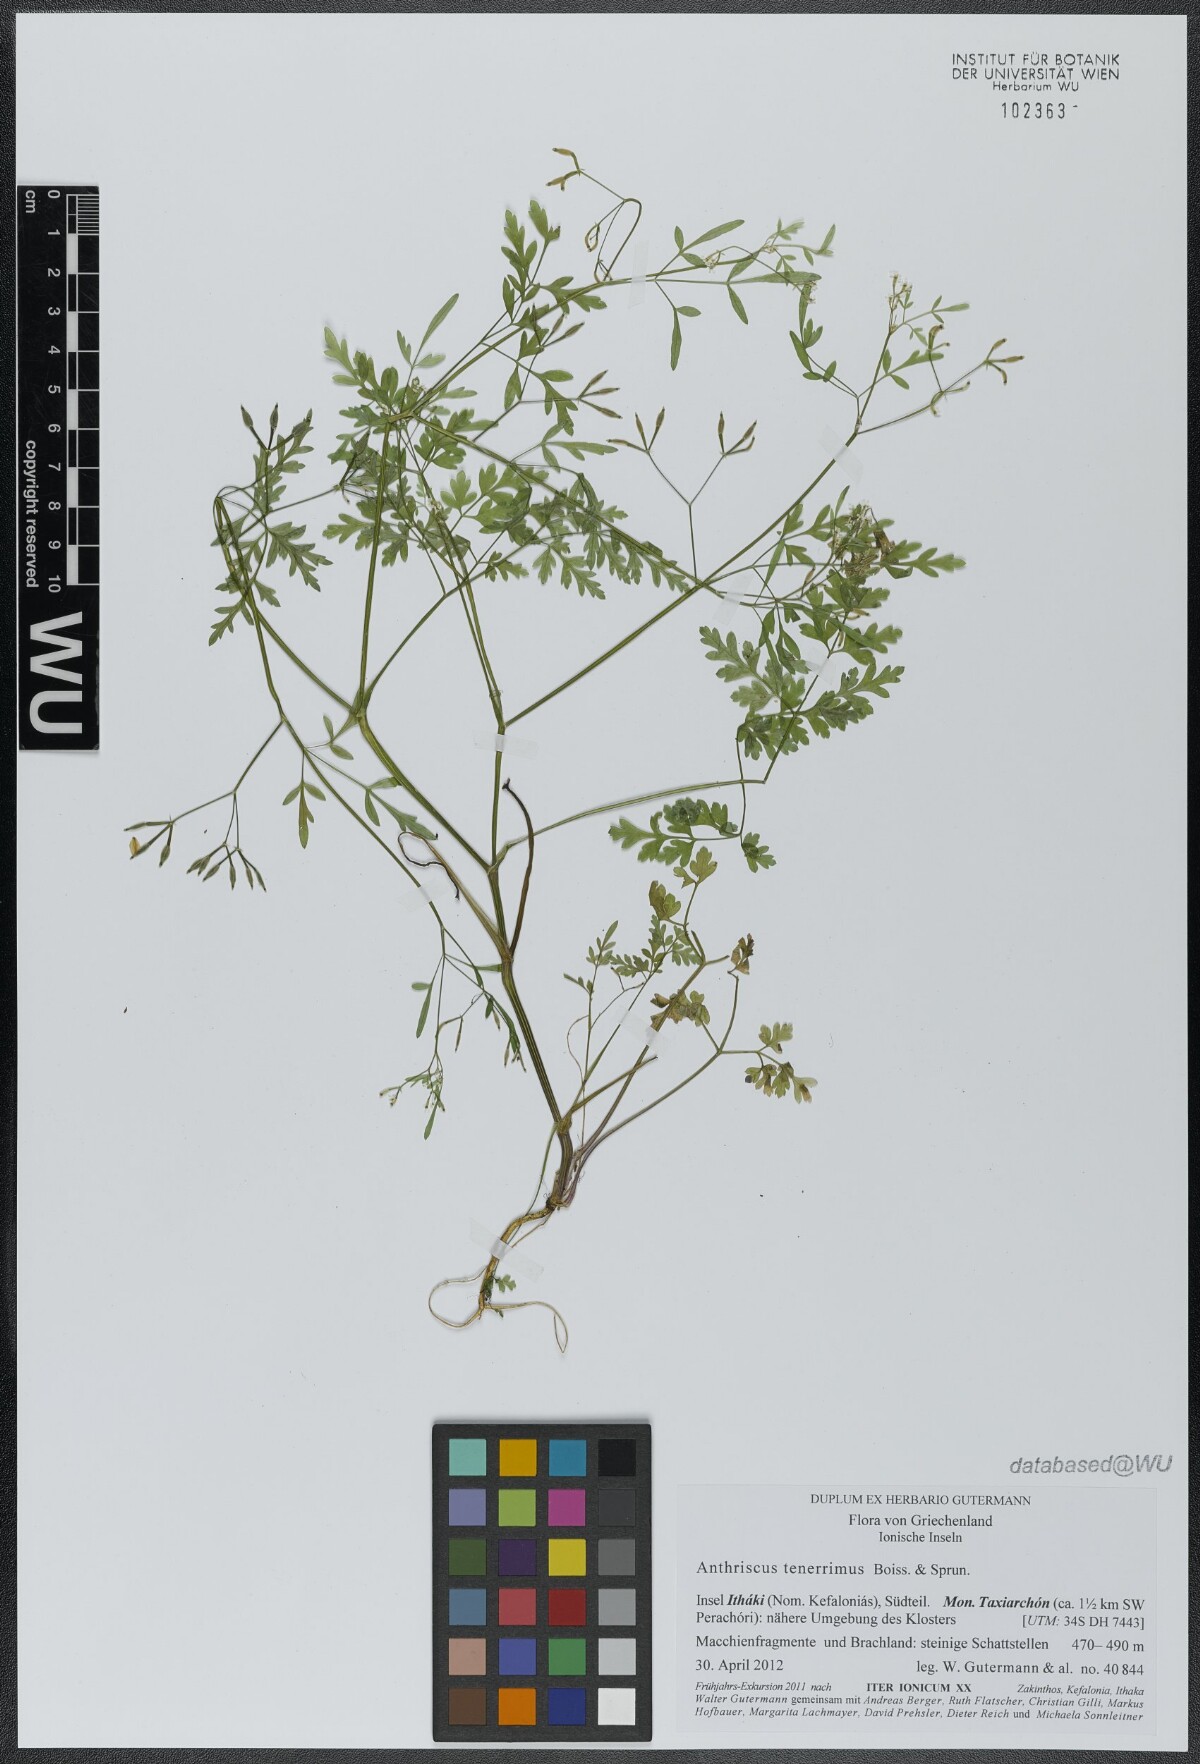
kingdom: Plantae
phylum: Tracheophyta
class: Magnoliopsida
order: Apiales
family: Apiaceae
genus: Anthriscus
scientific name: Anthriscus tenerrima
